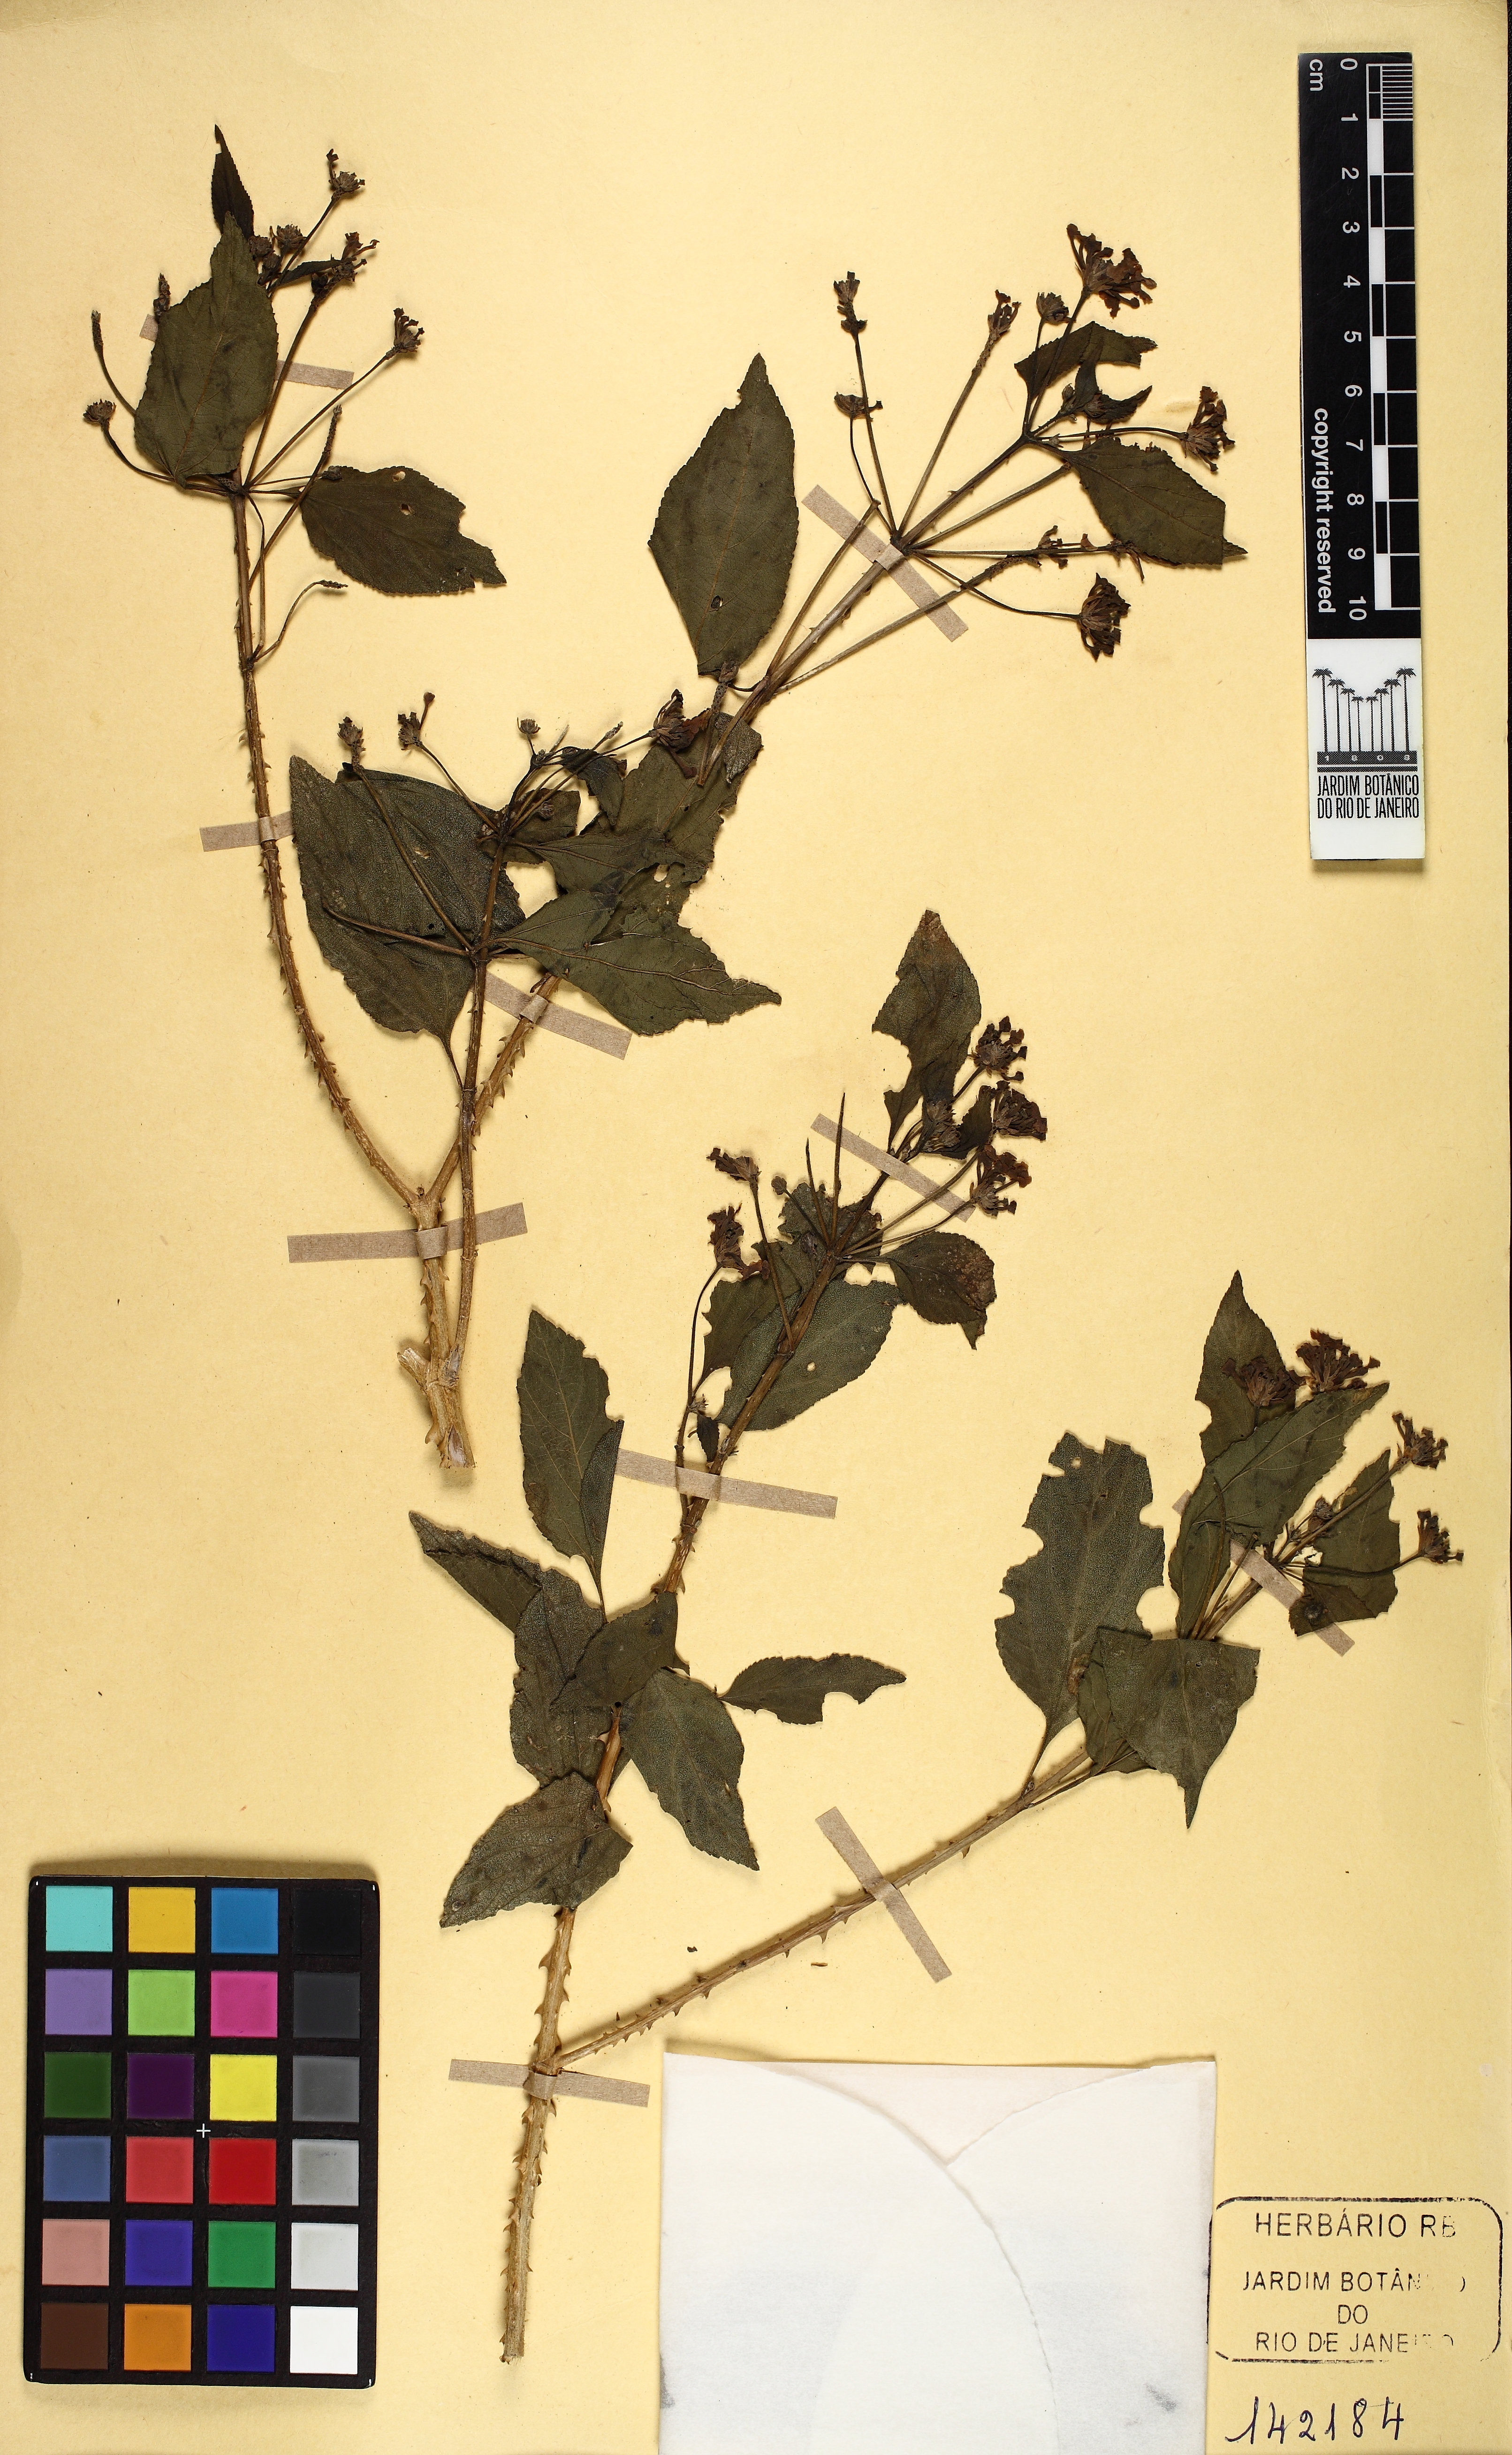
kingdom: Plantae
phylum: Tracheophyta
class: Magnoliopsida
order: Lamiales
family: Verbenaceae
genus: Lantana
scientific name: Lantana
